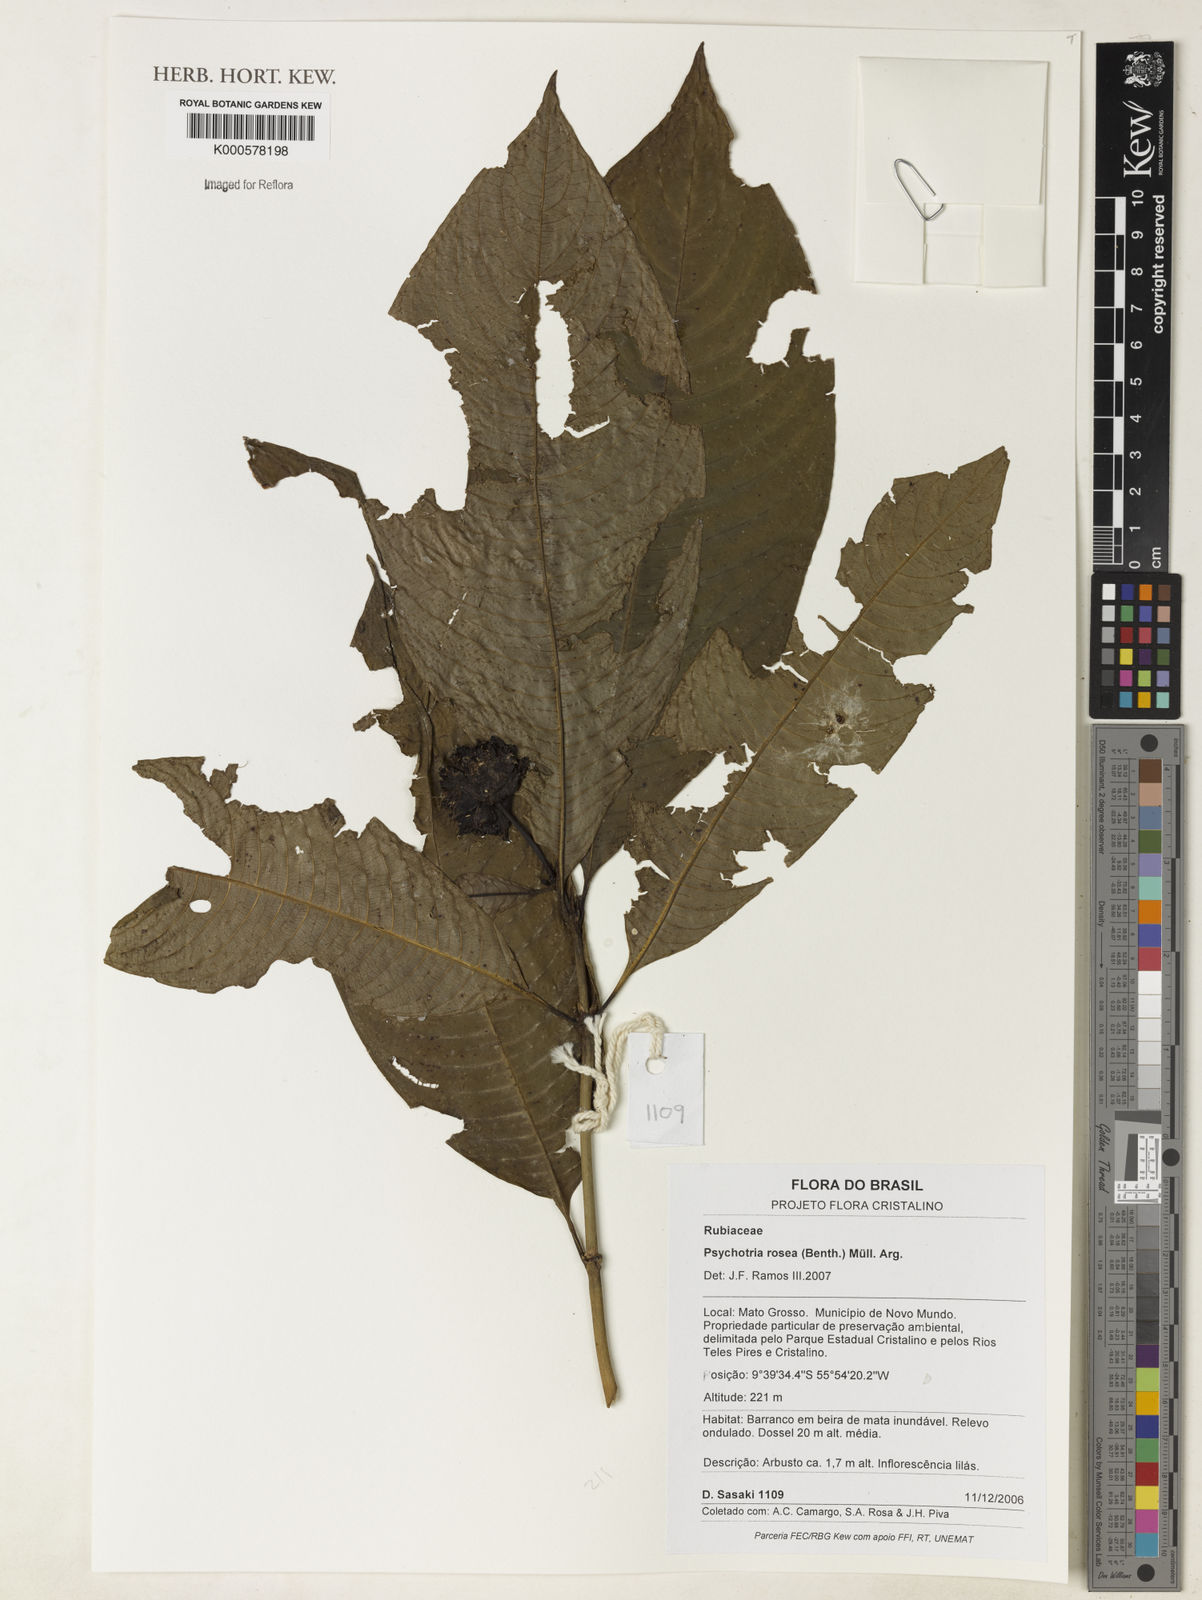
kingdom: Plantae
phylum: Tracheophyta
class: Magnoliopsida
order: Gentianales
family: Rubiaceae
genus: Psychotria
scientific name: Psychotria
